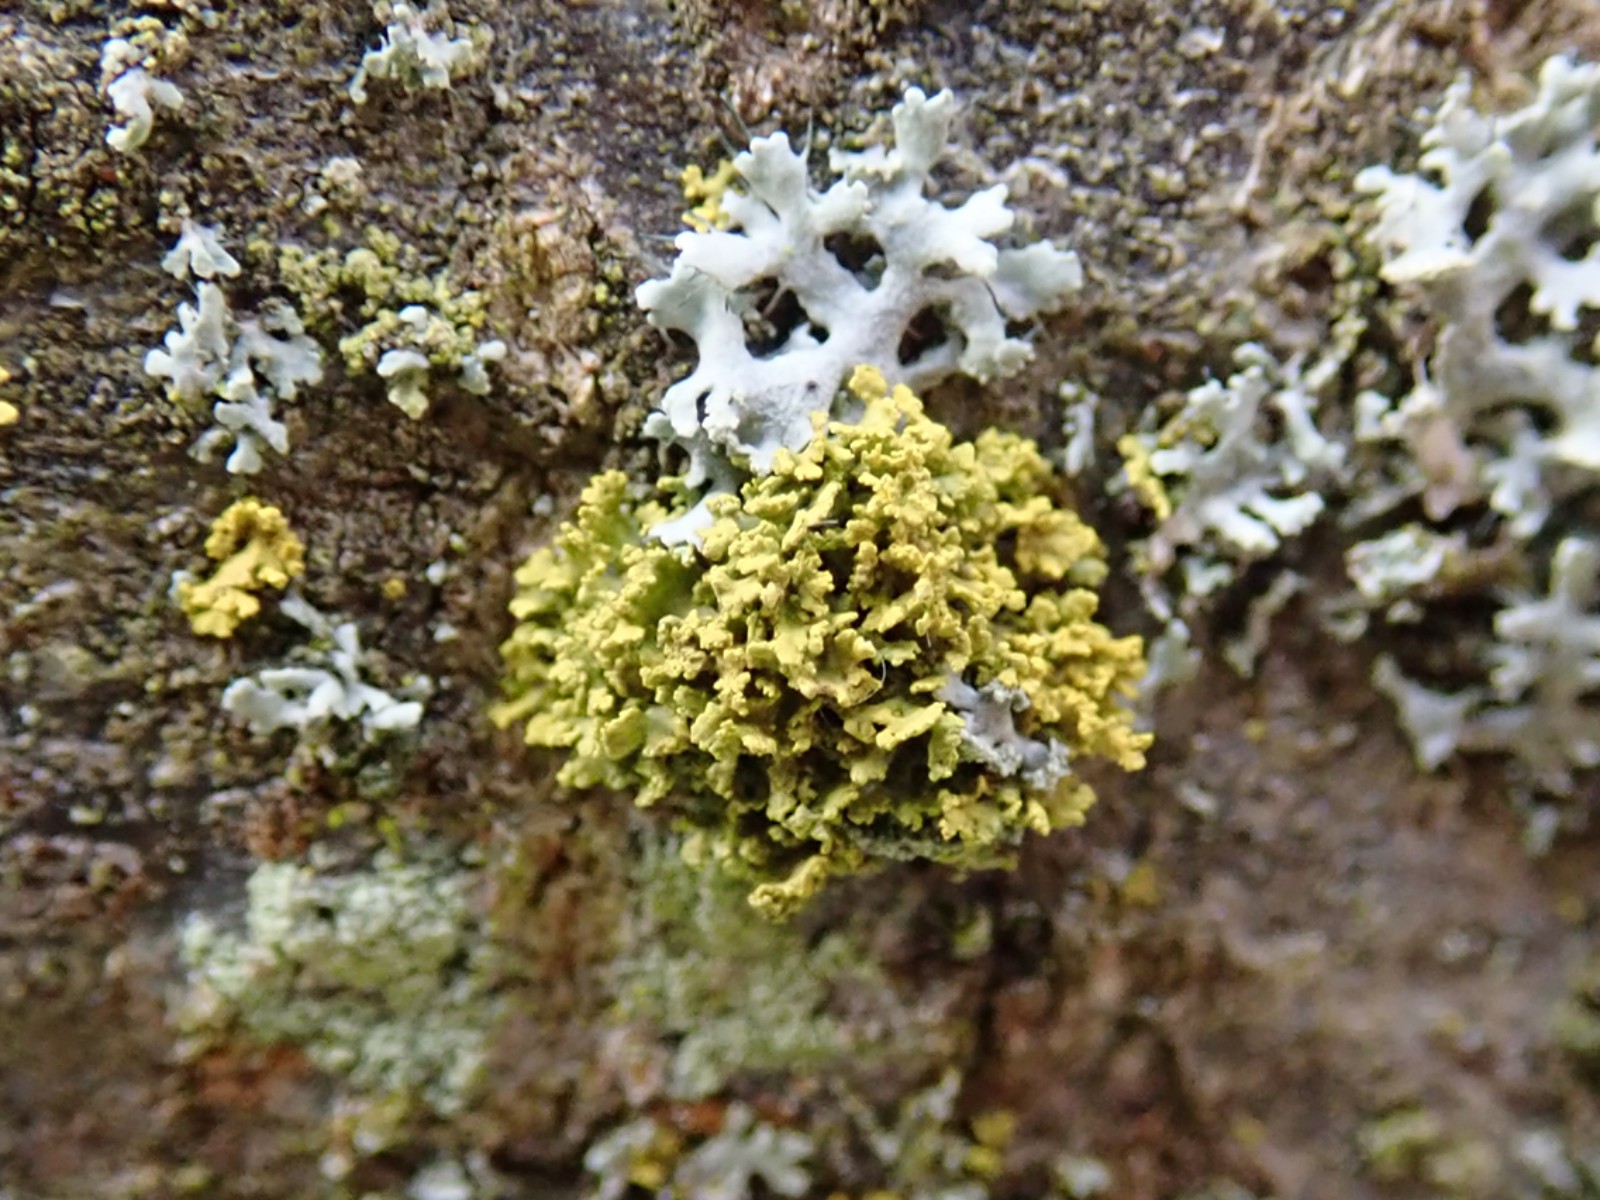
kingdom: Fungi
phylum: Ascomycota
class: Lecanoromycetes
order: Teloschistales
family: Teloschistaceae
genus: Polycauliona
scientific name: Polycauliona candelaria
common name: tue-orangelav
